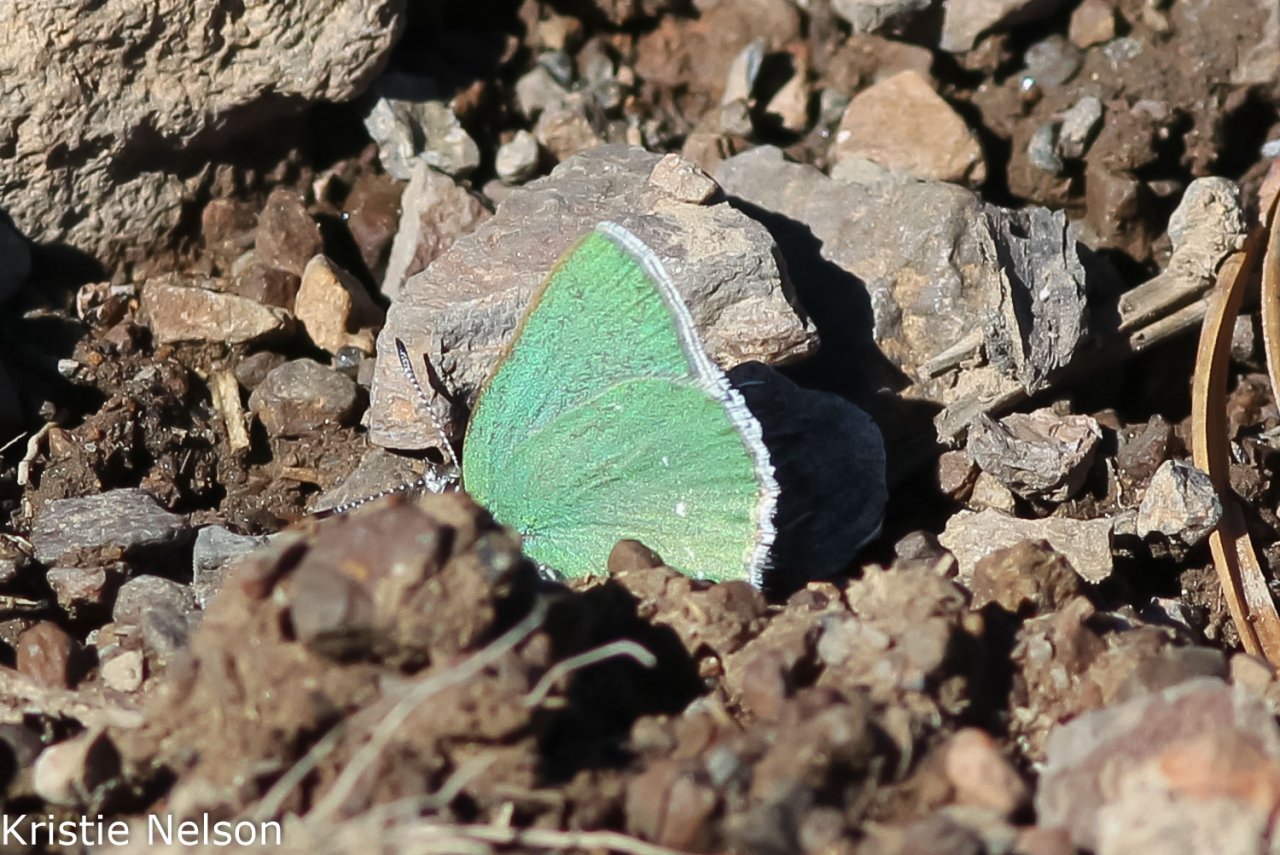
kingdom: Animalia
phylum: Arthropoda
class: Insecta
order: Lepidoptera
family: Lycaenidae
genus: Thecla
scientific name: Thecla sheridanii
